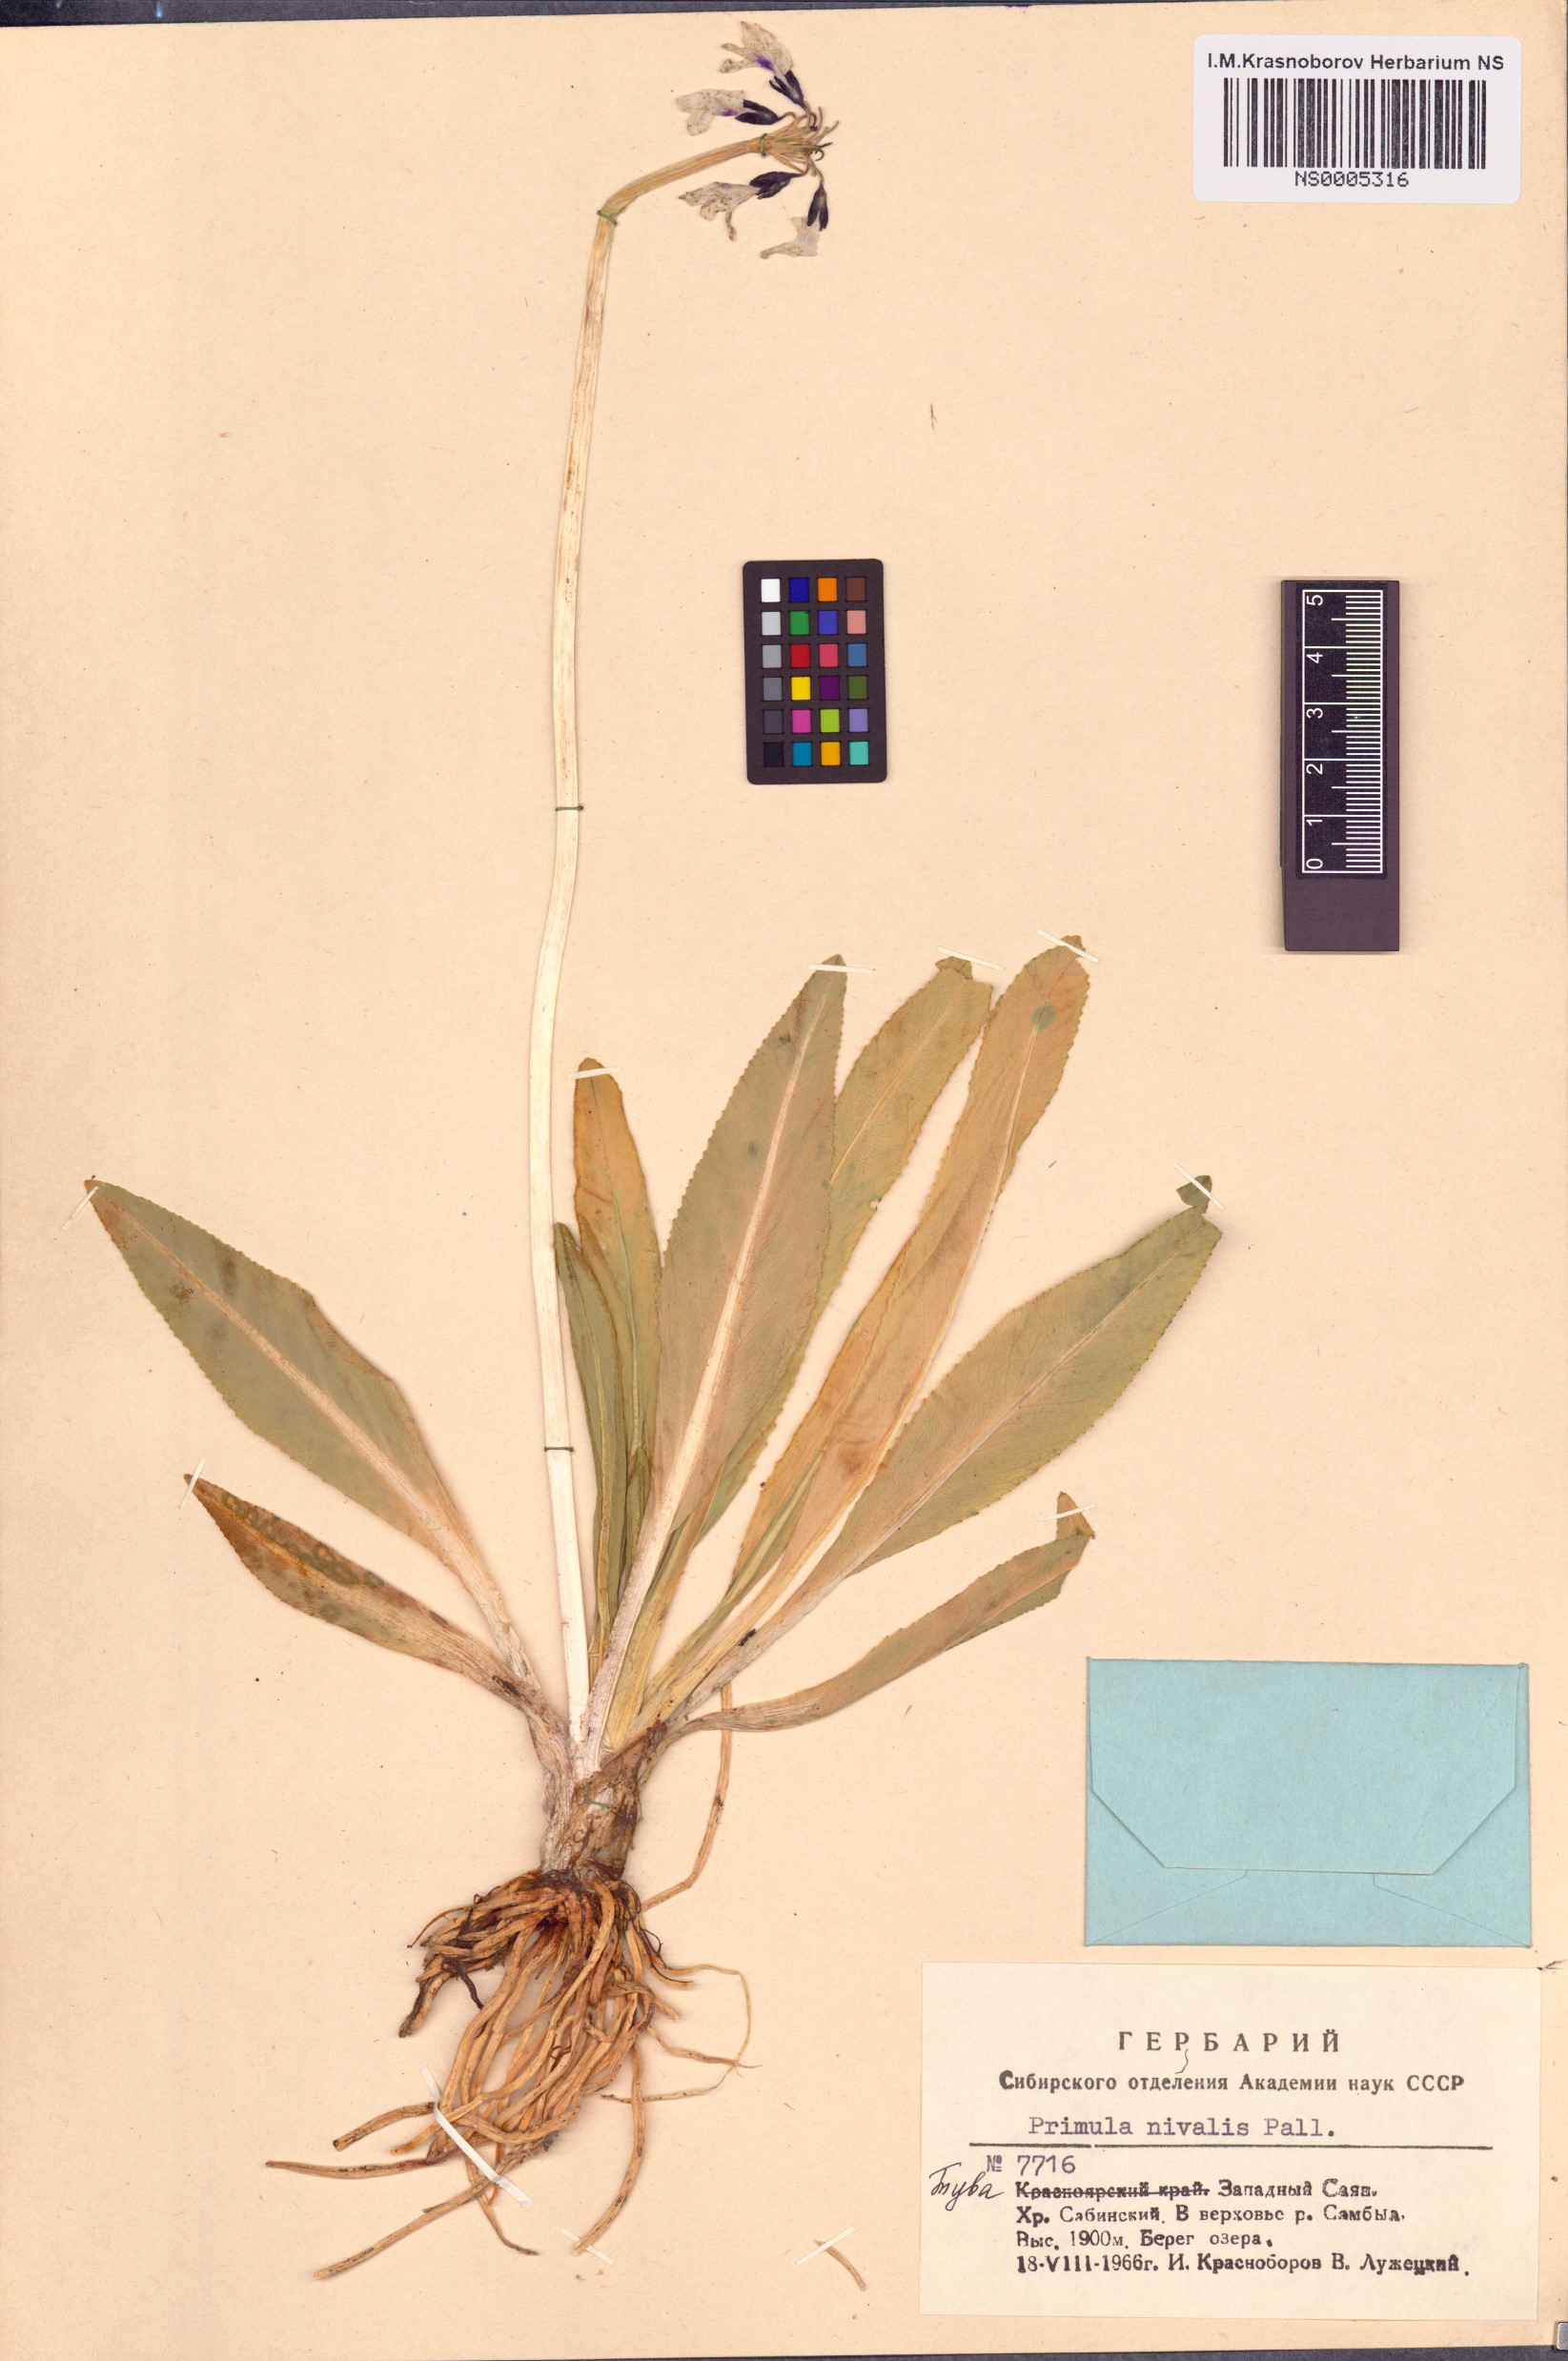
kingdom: Plantae
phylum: Tracheophyta
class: Magnoliopsida
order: Ericales
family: Primulaceae
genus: Primula
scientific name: Primula nivalis
